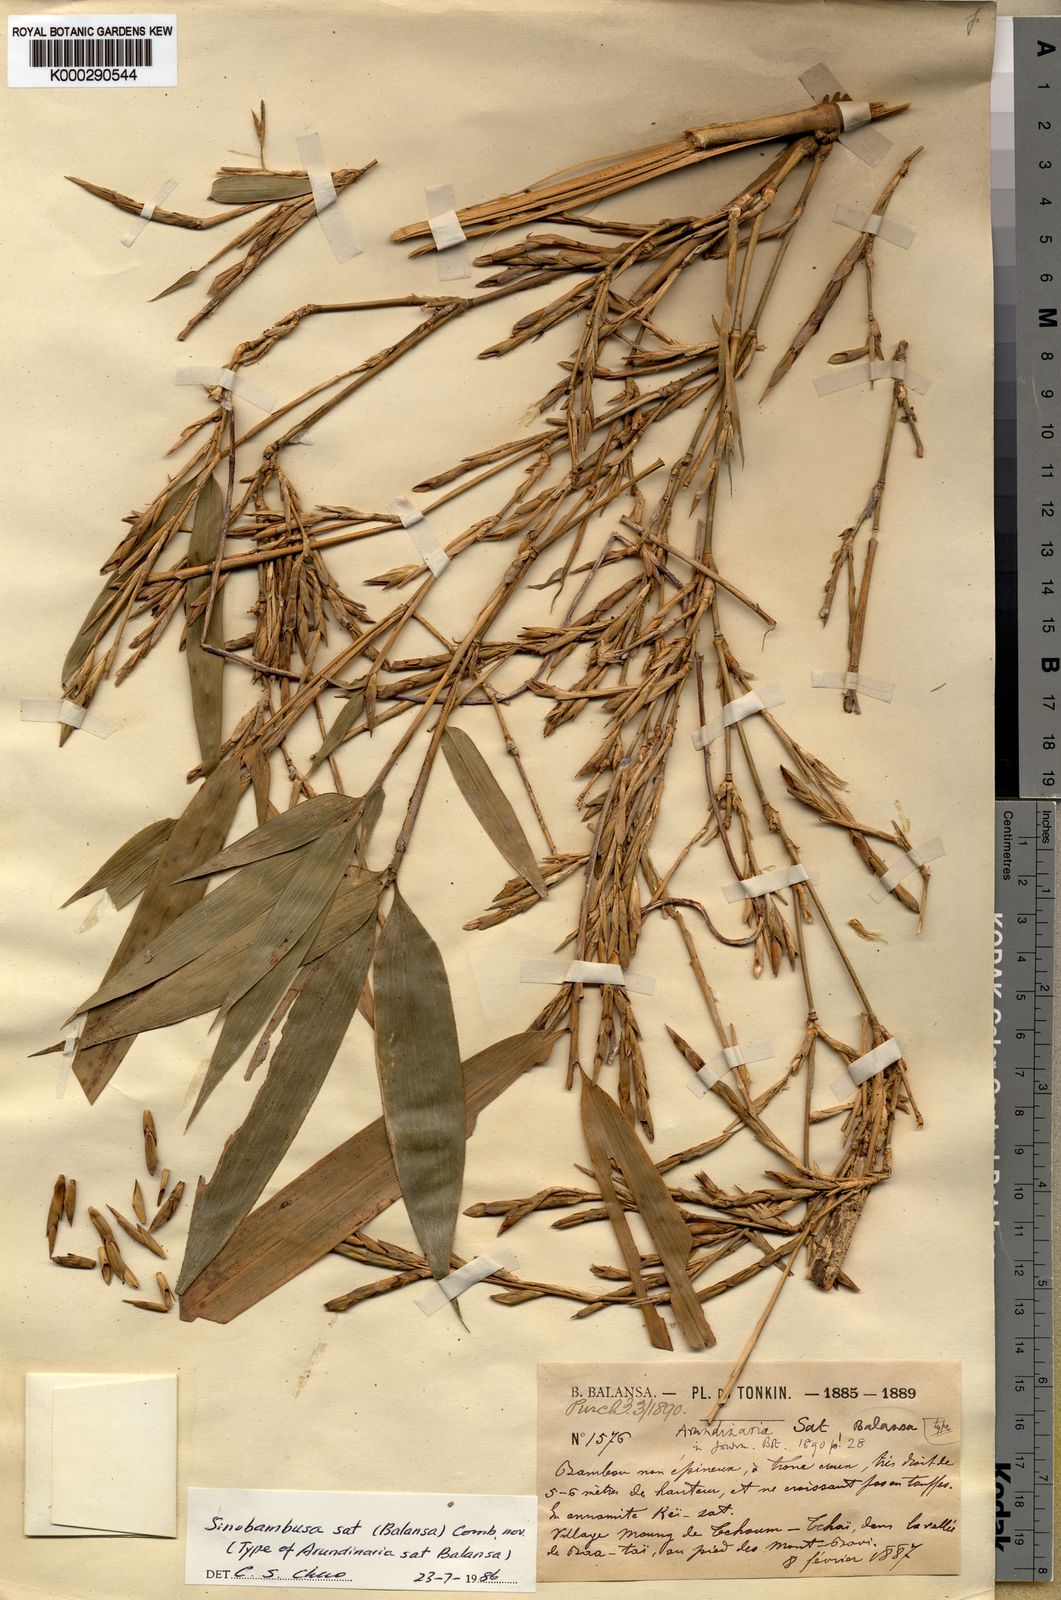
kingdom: Plantae
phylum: Tracheophyta
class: Liliopsida
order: Poales
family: Poaceae
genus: Sinobambusa
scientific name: Sinobambusa sat
